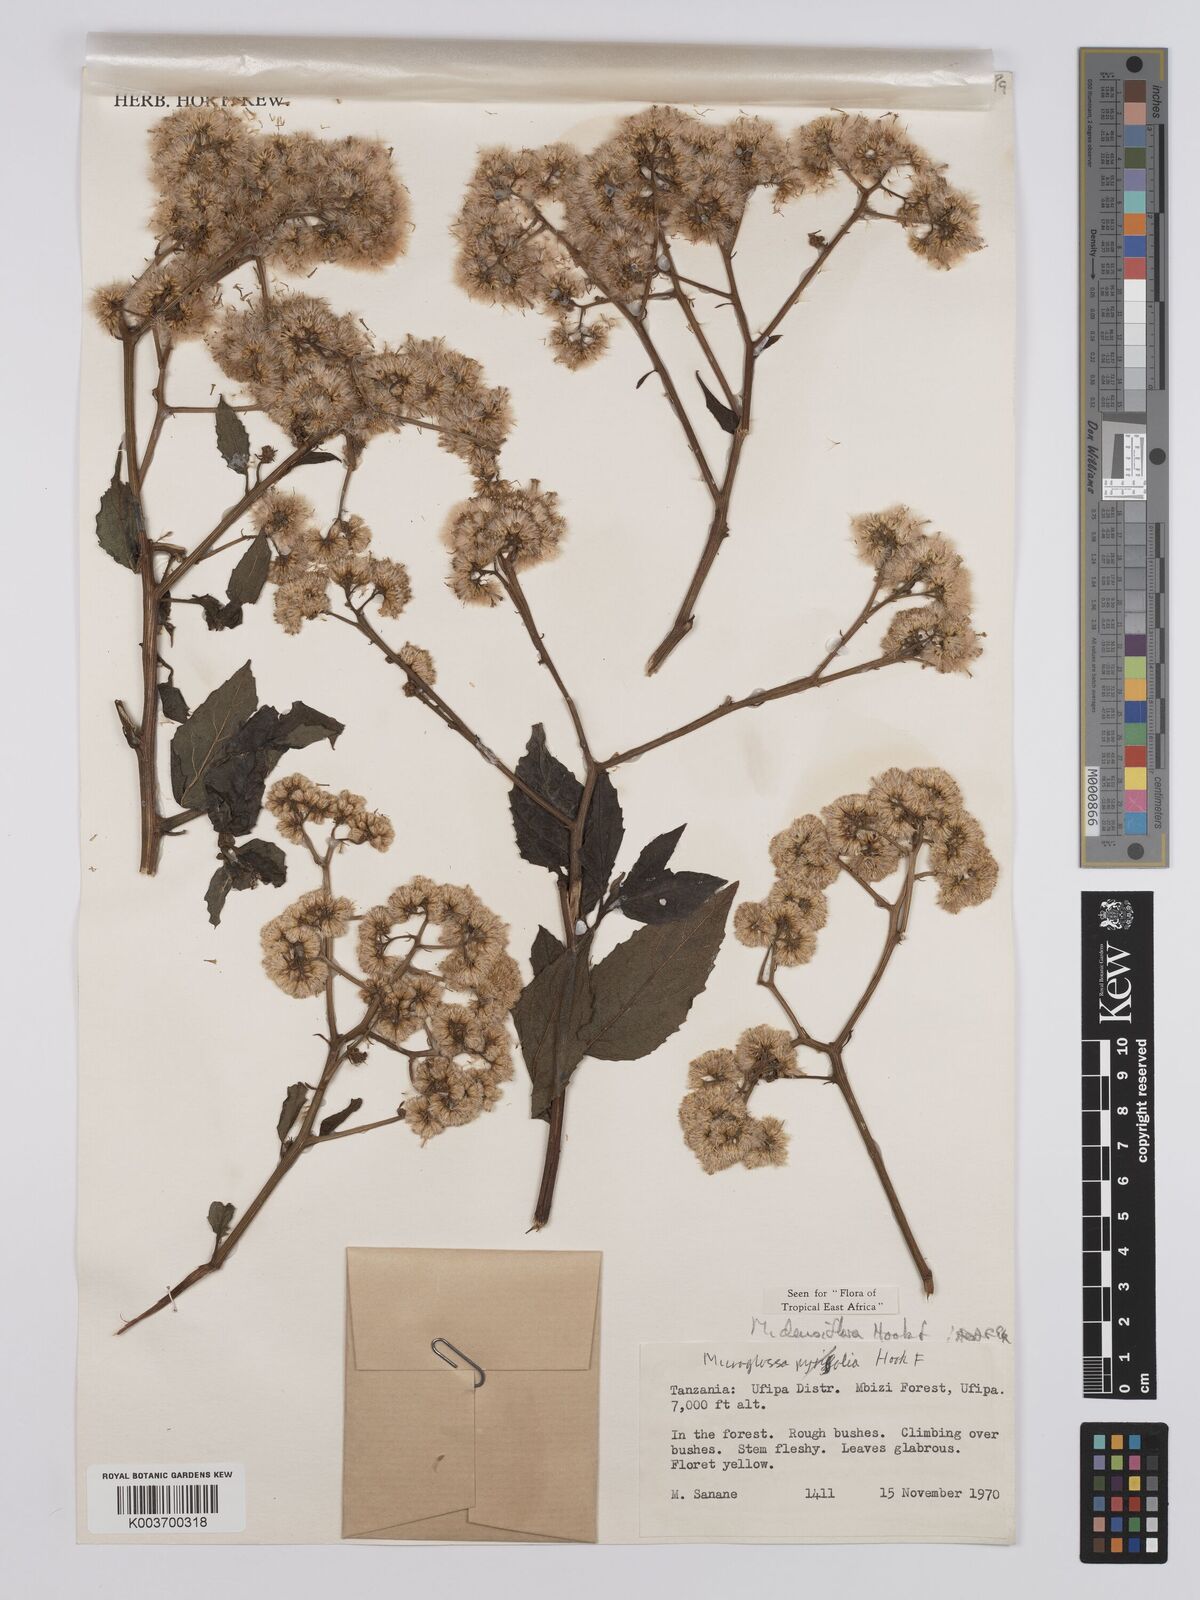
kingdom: Plantae
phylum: Tracheophyta
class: Magnoliopsida
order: Asterales
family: Asteraceae
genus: Microglossa
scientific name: Microglossa densiflora
